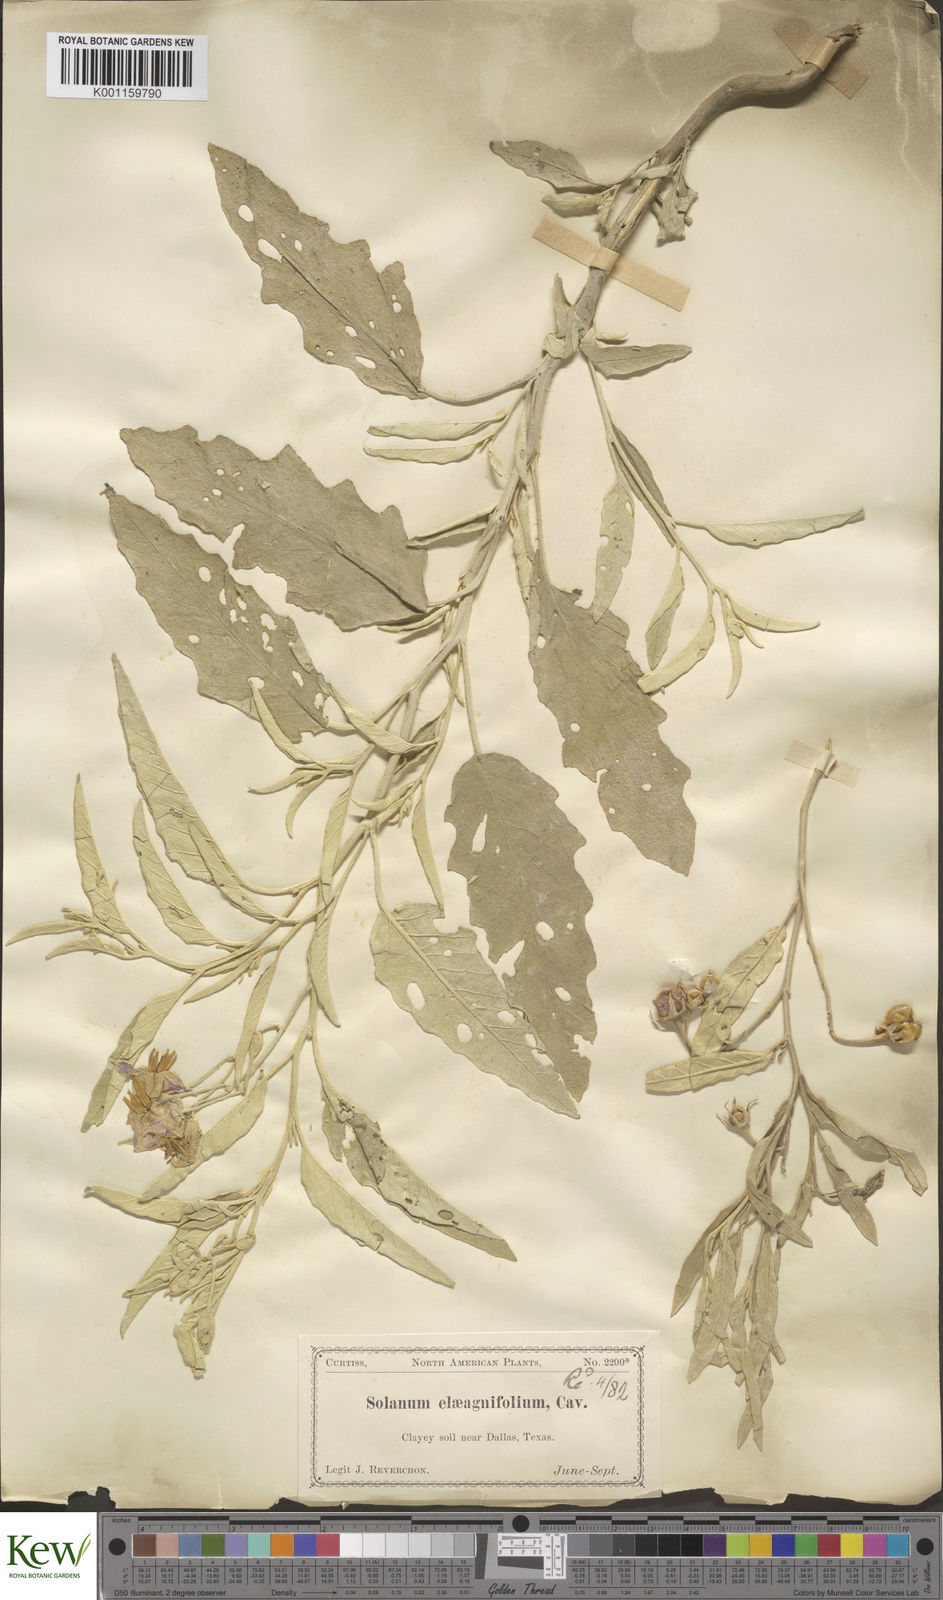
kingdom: Plantae
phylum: Tracheophyta
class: Magnoliopsida
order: Solanales
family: Solanaceae
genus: Solanum
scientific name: Solanum
